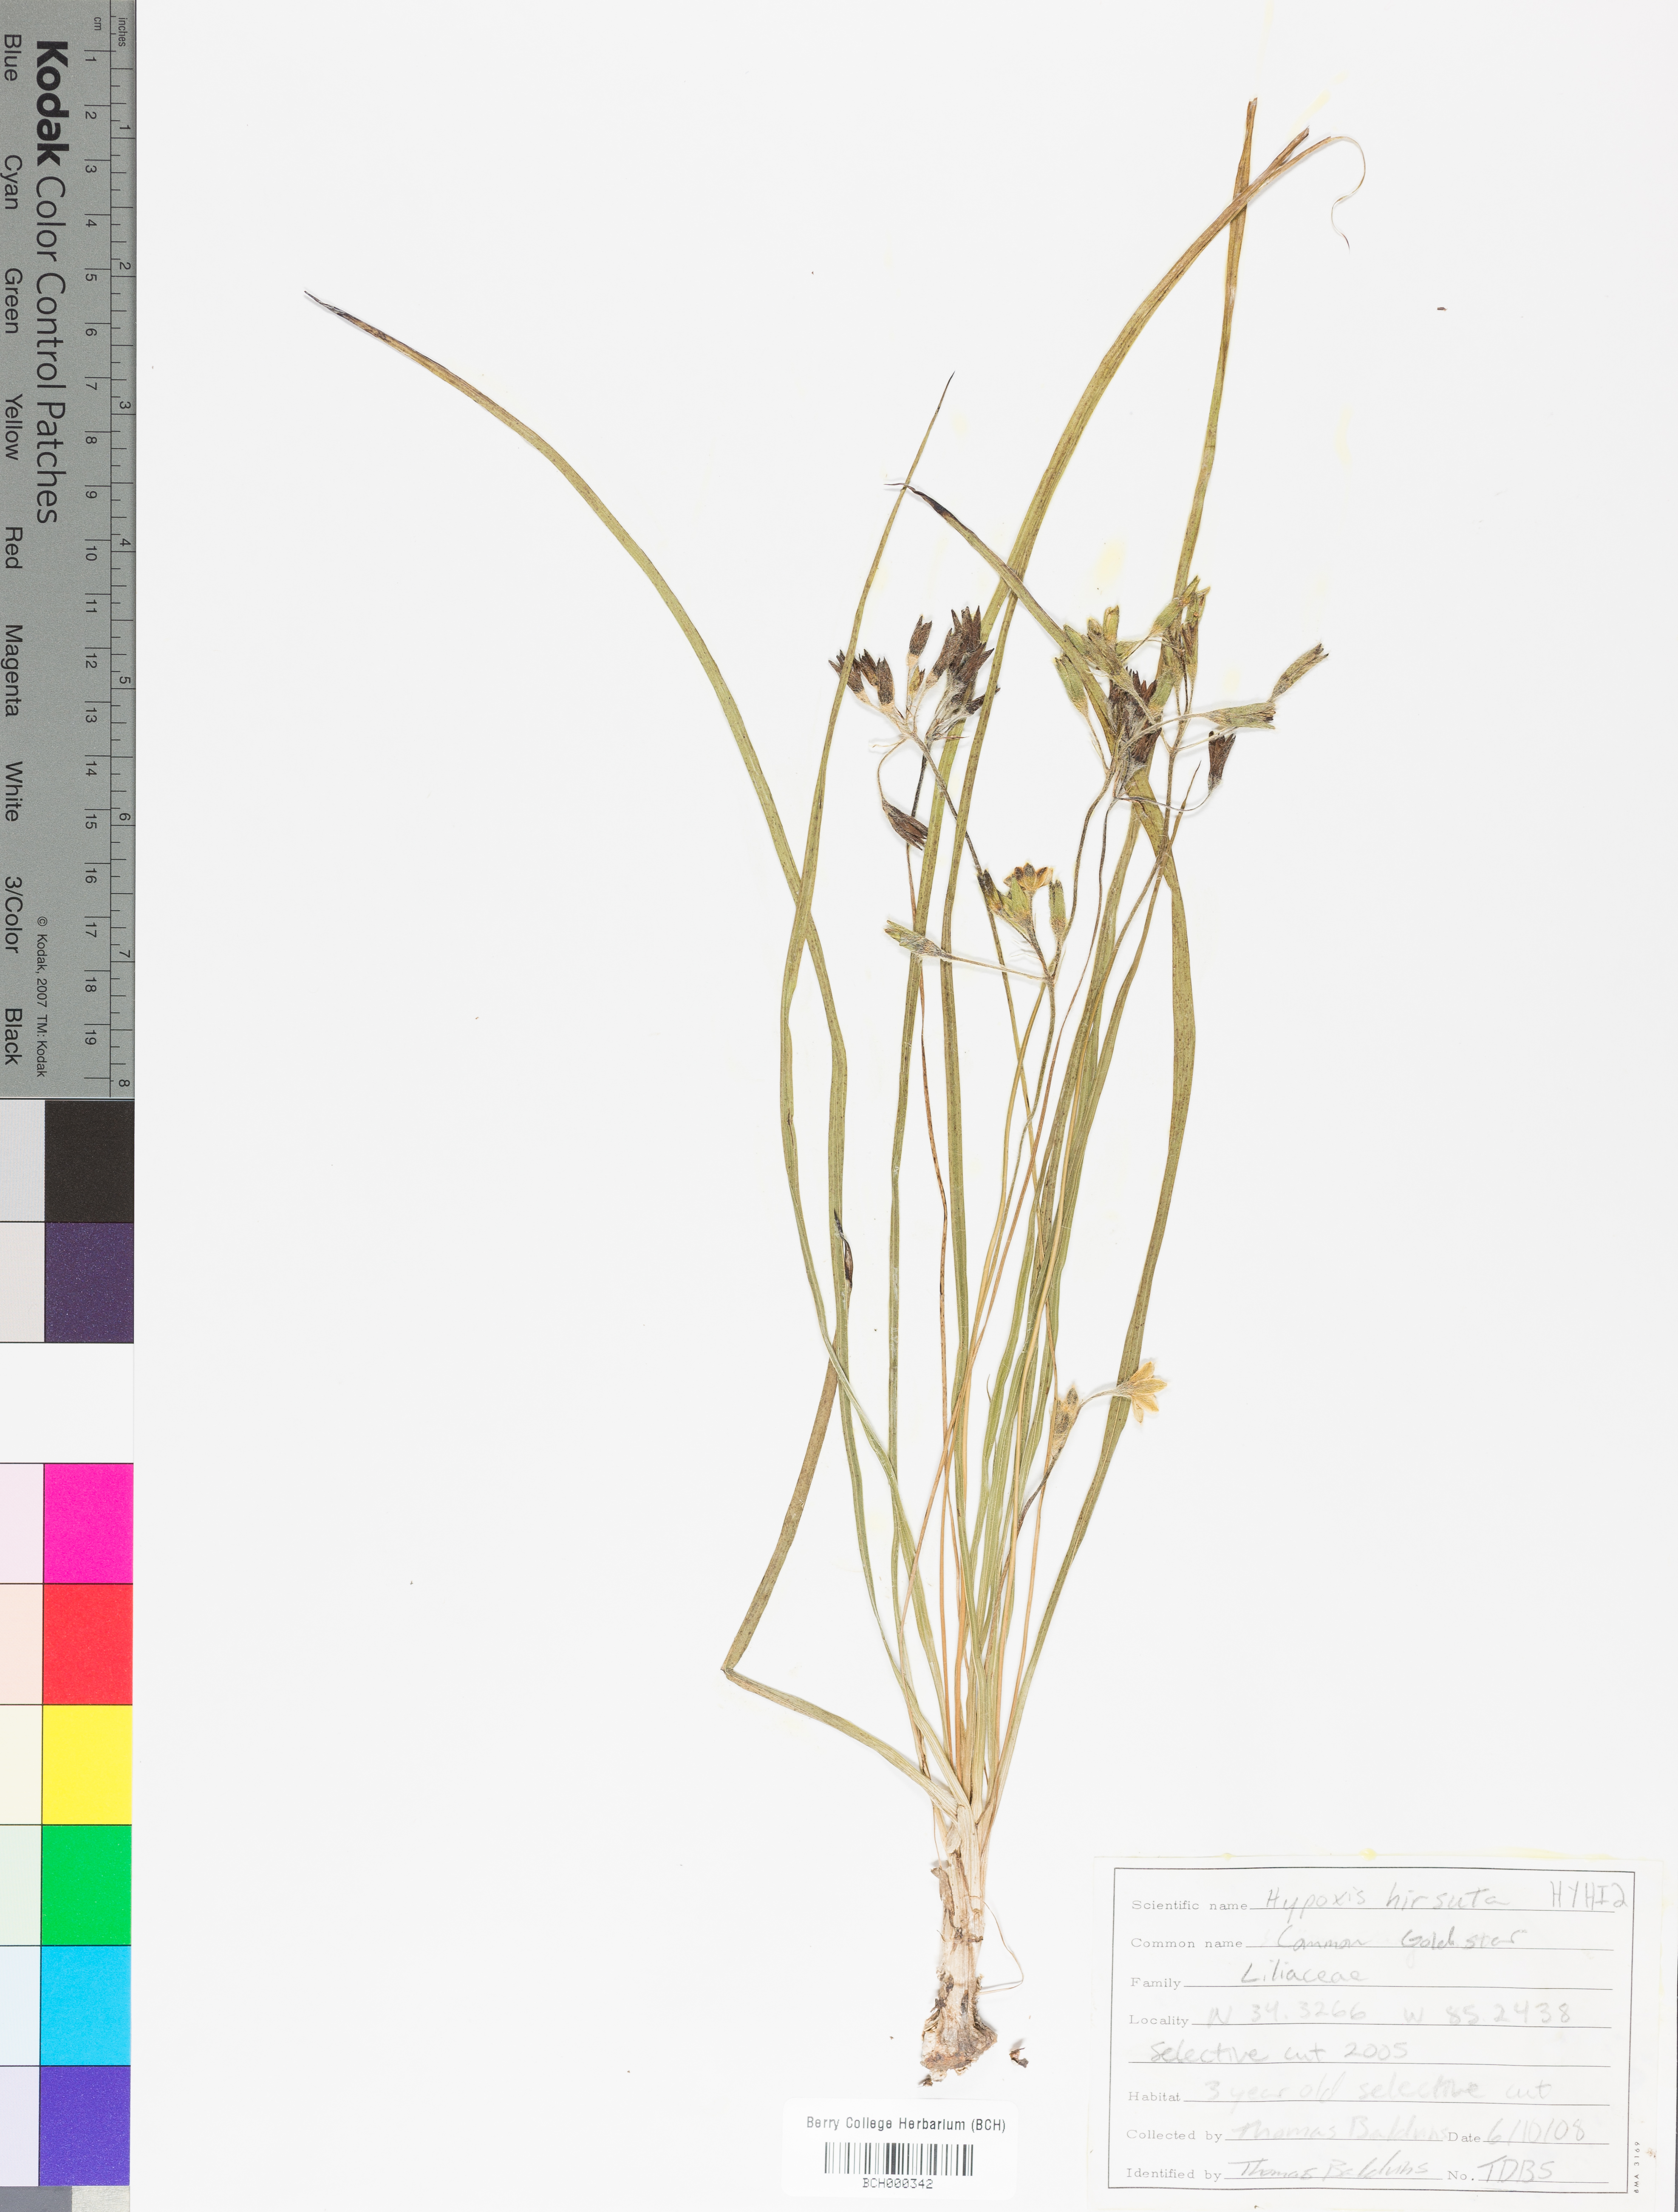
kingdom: Plantae
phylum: Tracheophyta
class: Liliopsida
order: Asparagales
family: Hypoxidaceae
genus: Hypoxis
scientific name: Hypoxis hirsuta
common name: Common goldstar
